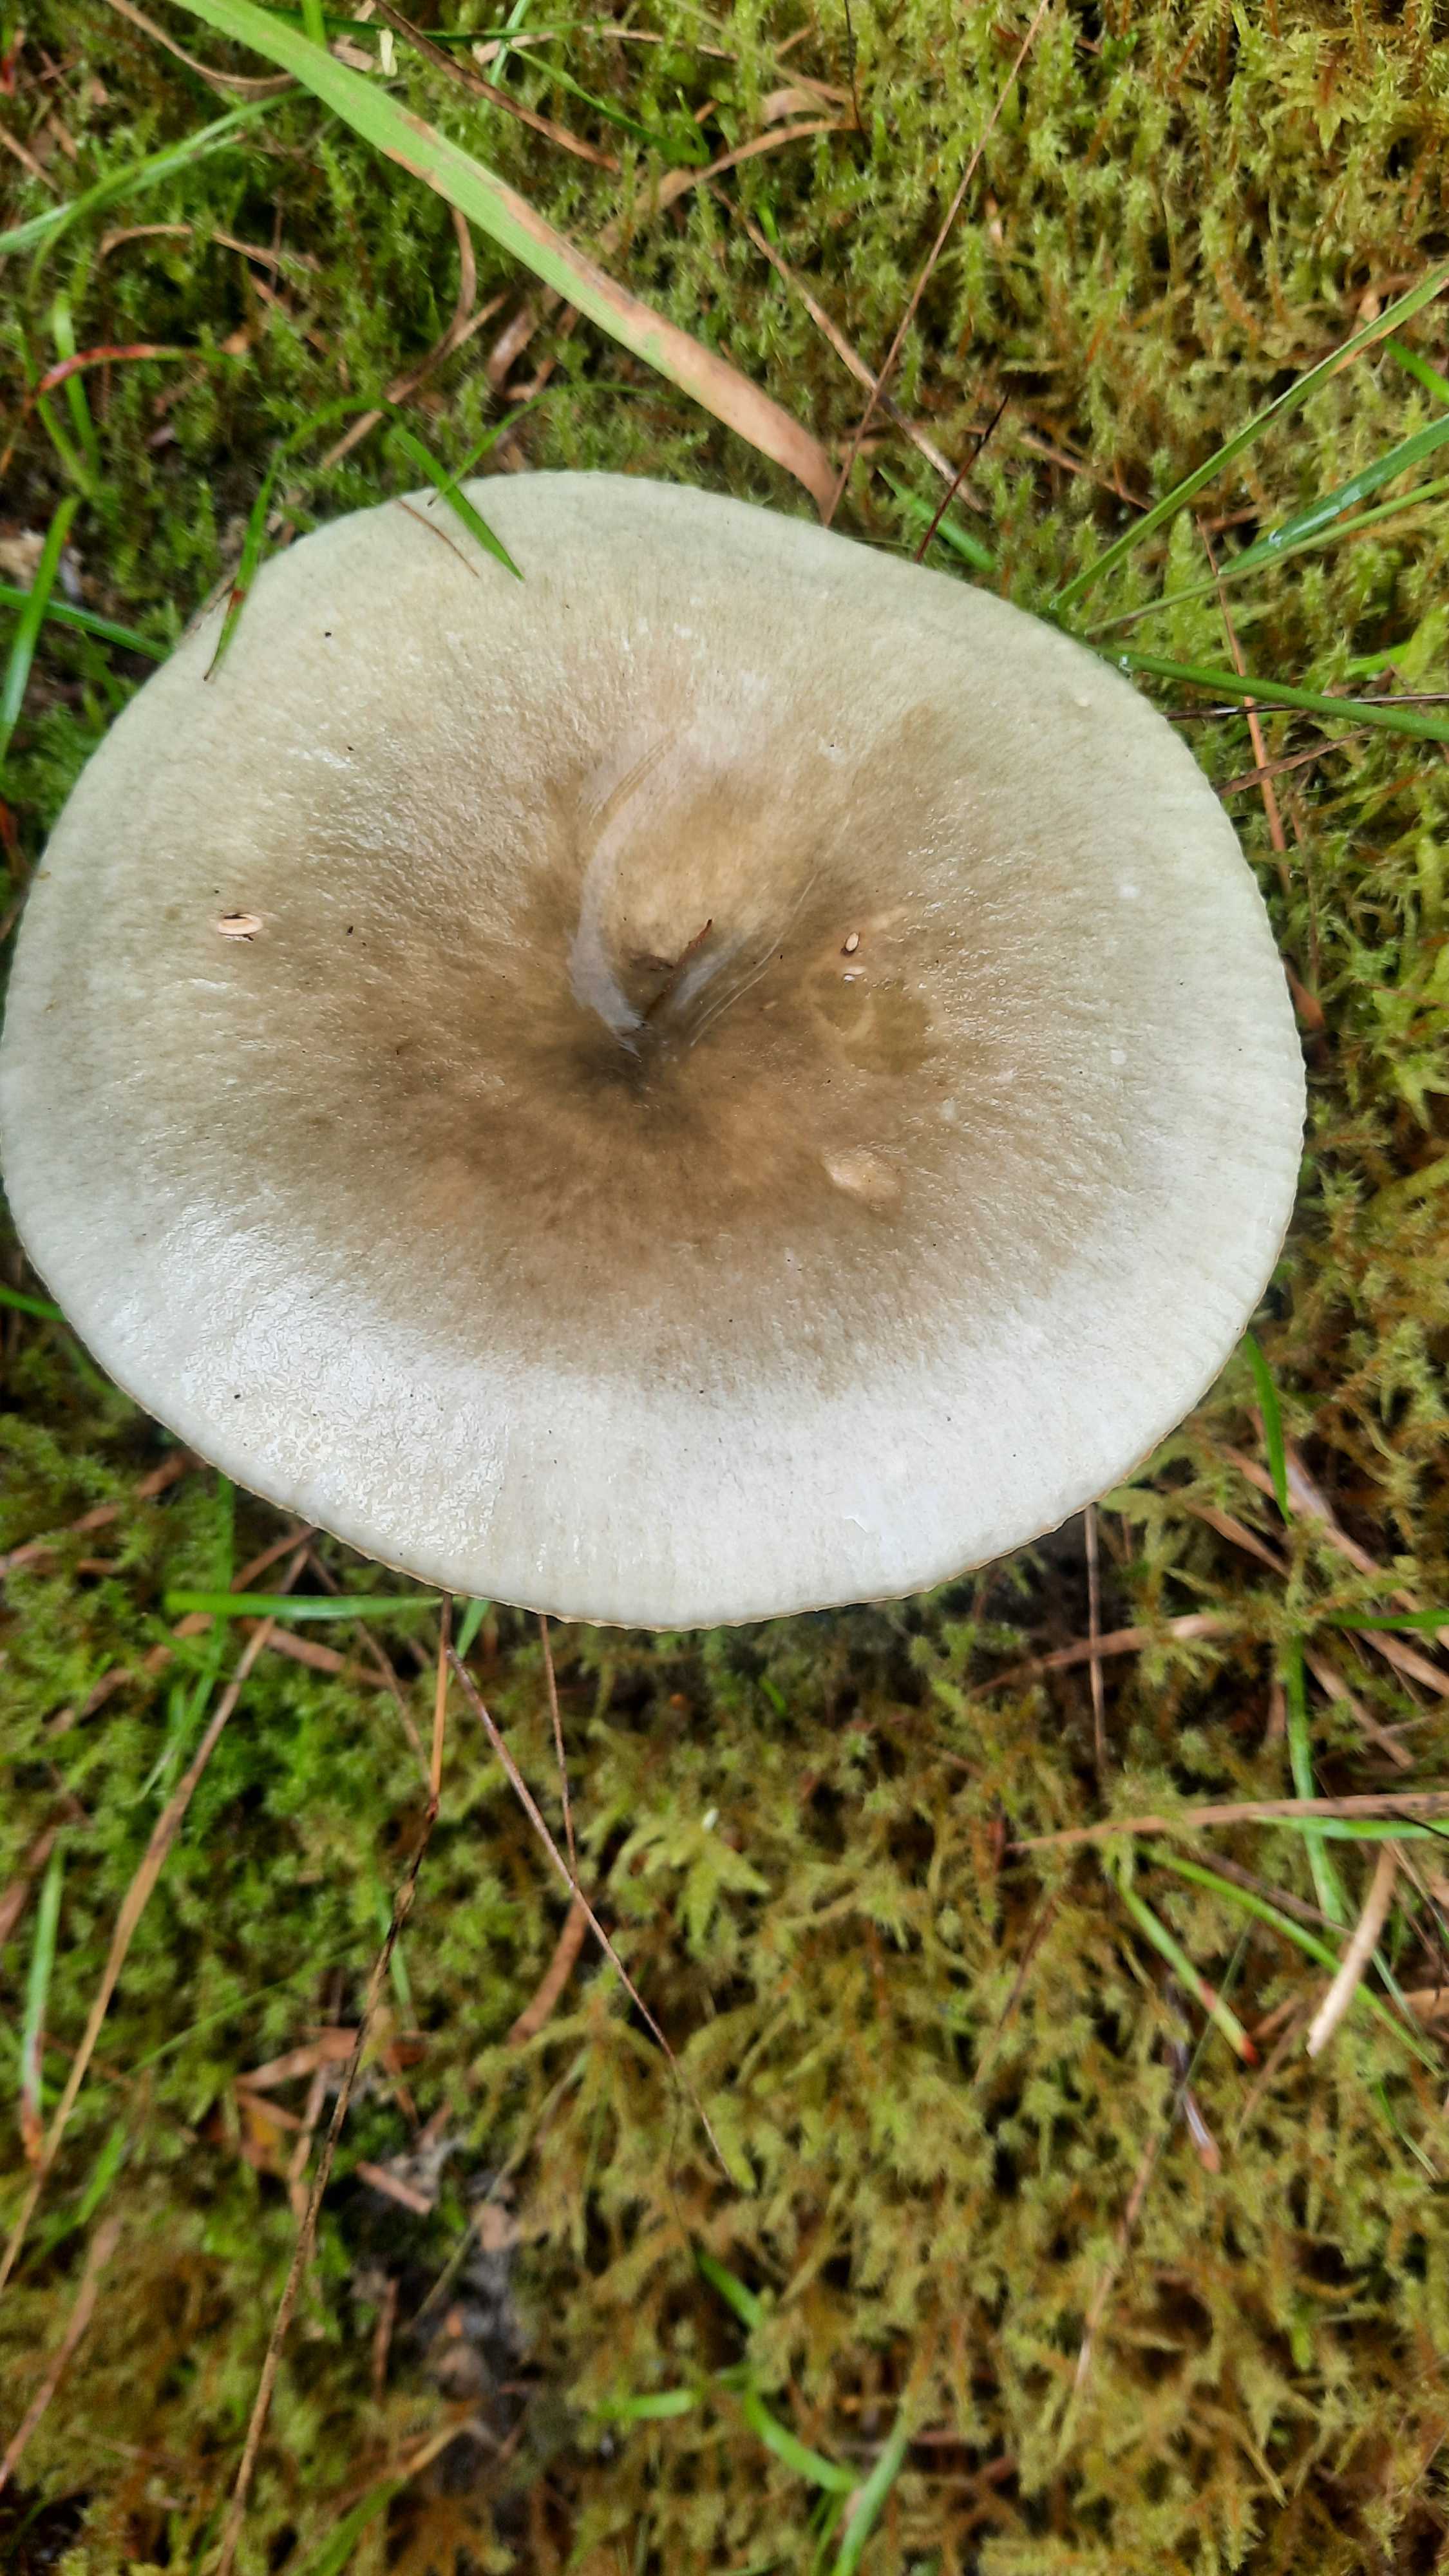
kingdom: Fungi
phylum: Basidiomycota
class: Agaricomycetes
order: Russulales
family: Russulaceae
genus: Russula
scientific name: Russula aeruginea
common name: græsgrøn skørhat
